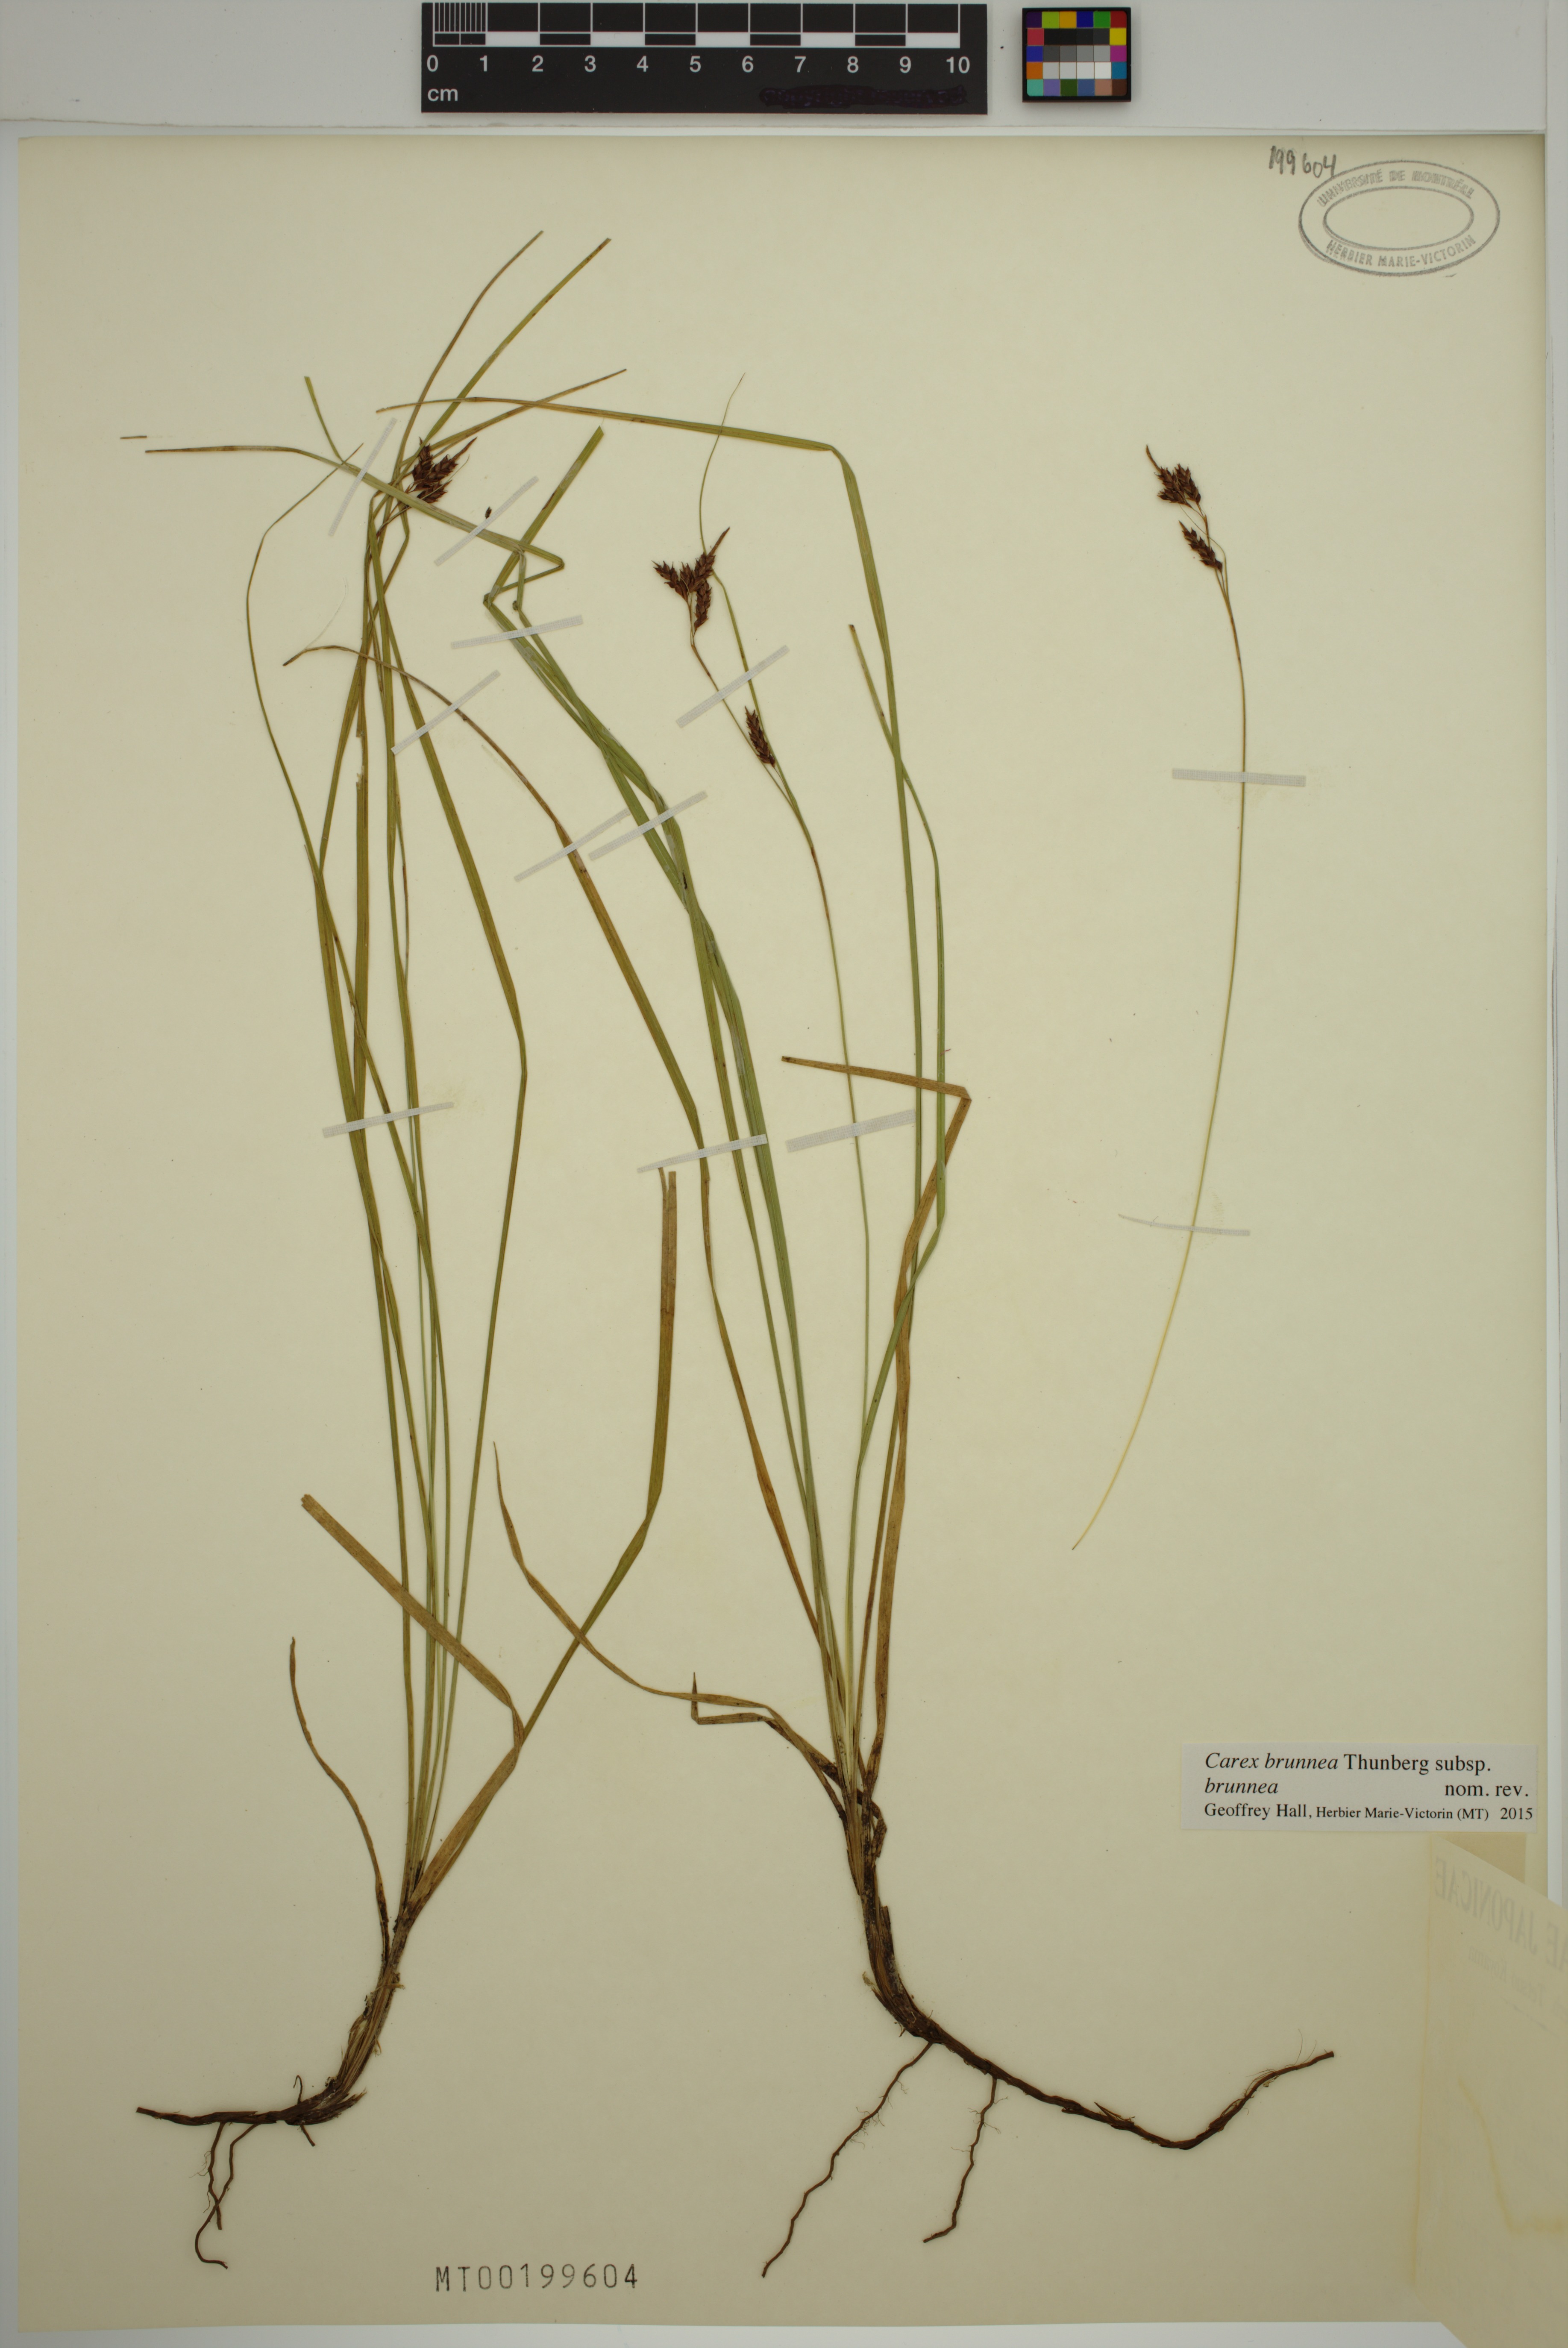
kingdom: Plantae
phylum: Tracheophyta
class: Liliopsida
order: Poales
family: Cyperaceae
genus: Carex
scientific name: Carex brunnea
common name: Greater brown sedge
